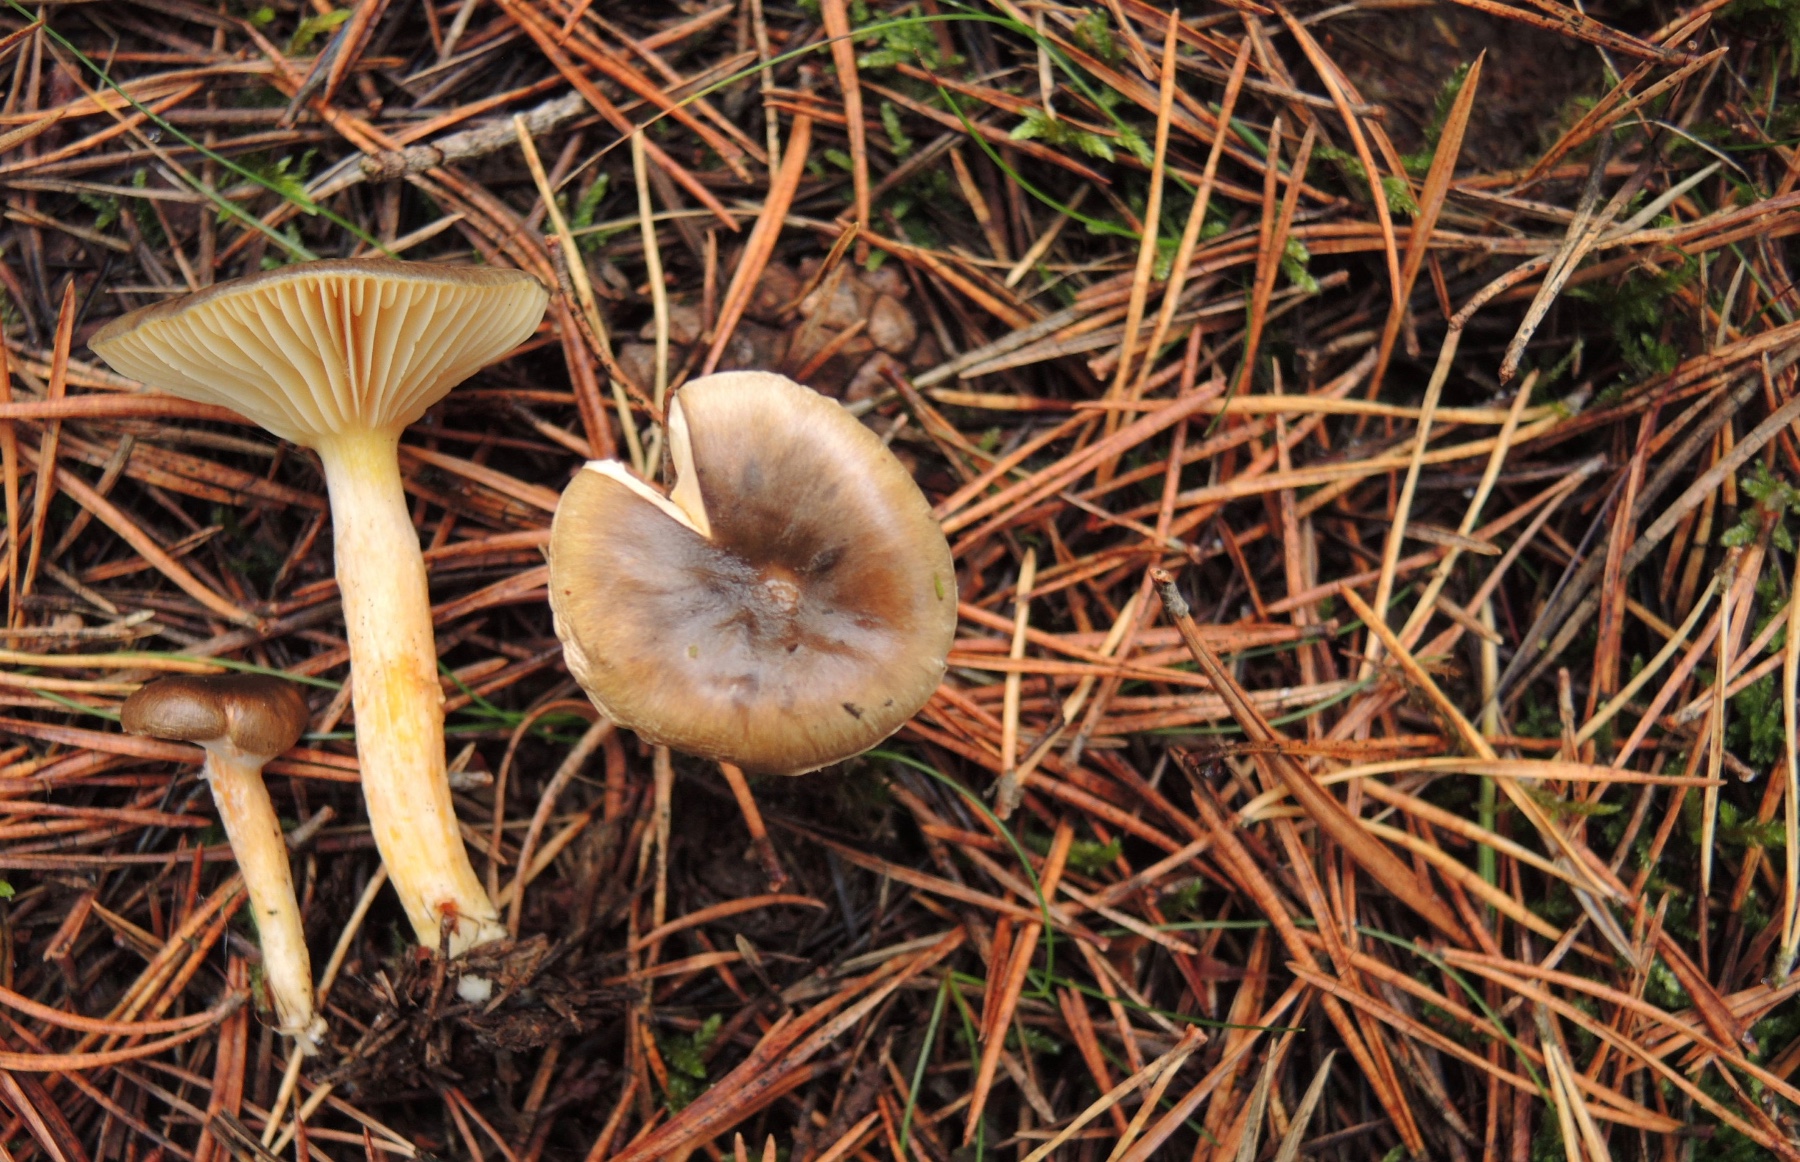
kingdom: Fungi
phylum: Basidiomycota
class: Agaricomycetes
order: Agaricales
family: Hygrophoraceae
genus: Hygrophorus
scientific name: Hygrophorus hypothejus
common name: frost-sneglehat
